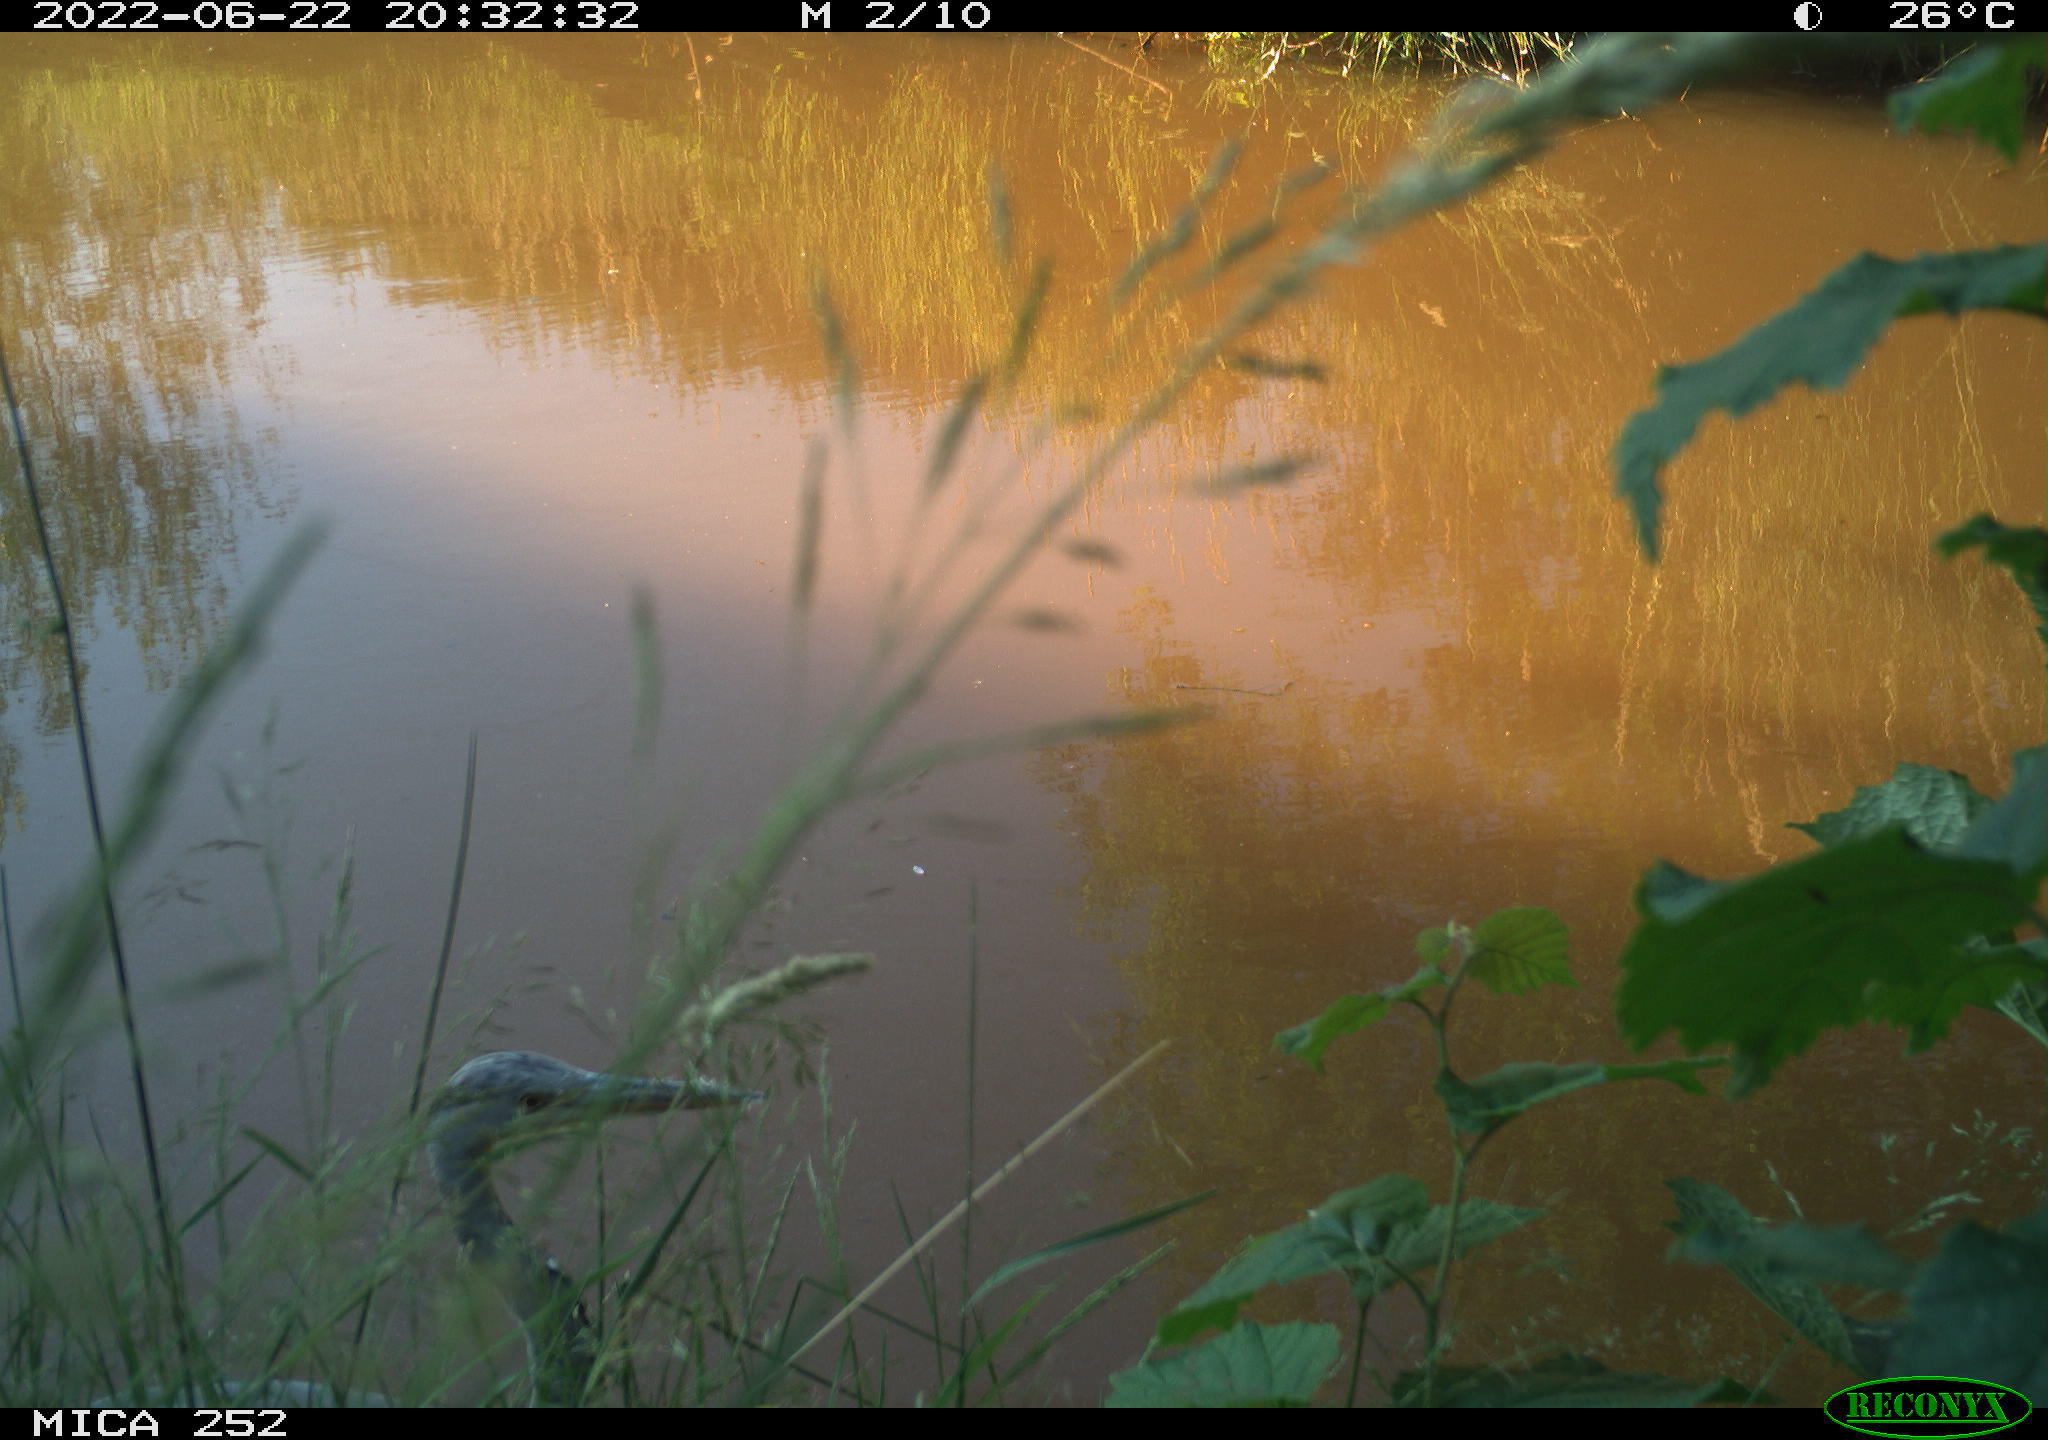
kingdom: Animalia
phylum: Chordata
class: Aves
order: Pelecaniformes
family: Ardeidae
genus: Ardea
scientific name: Ardea cinerea
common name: Grey heron
